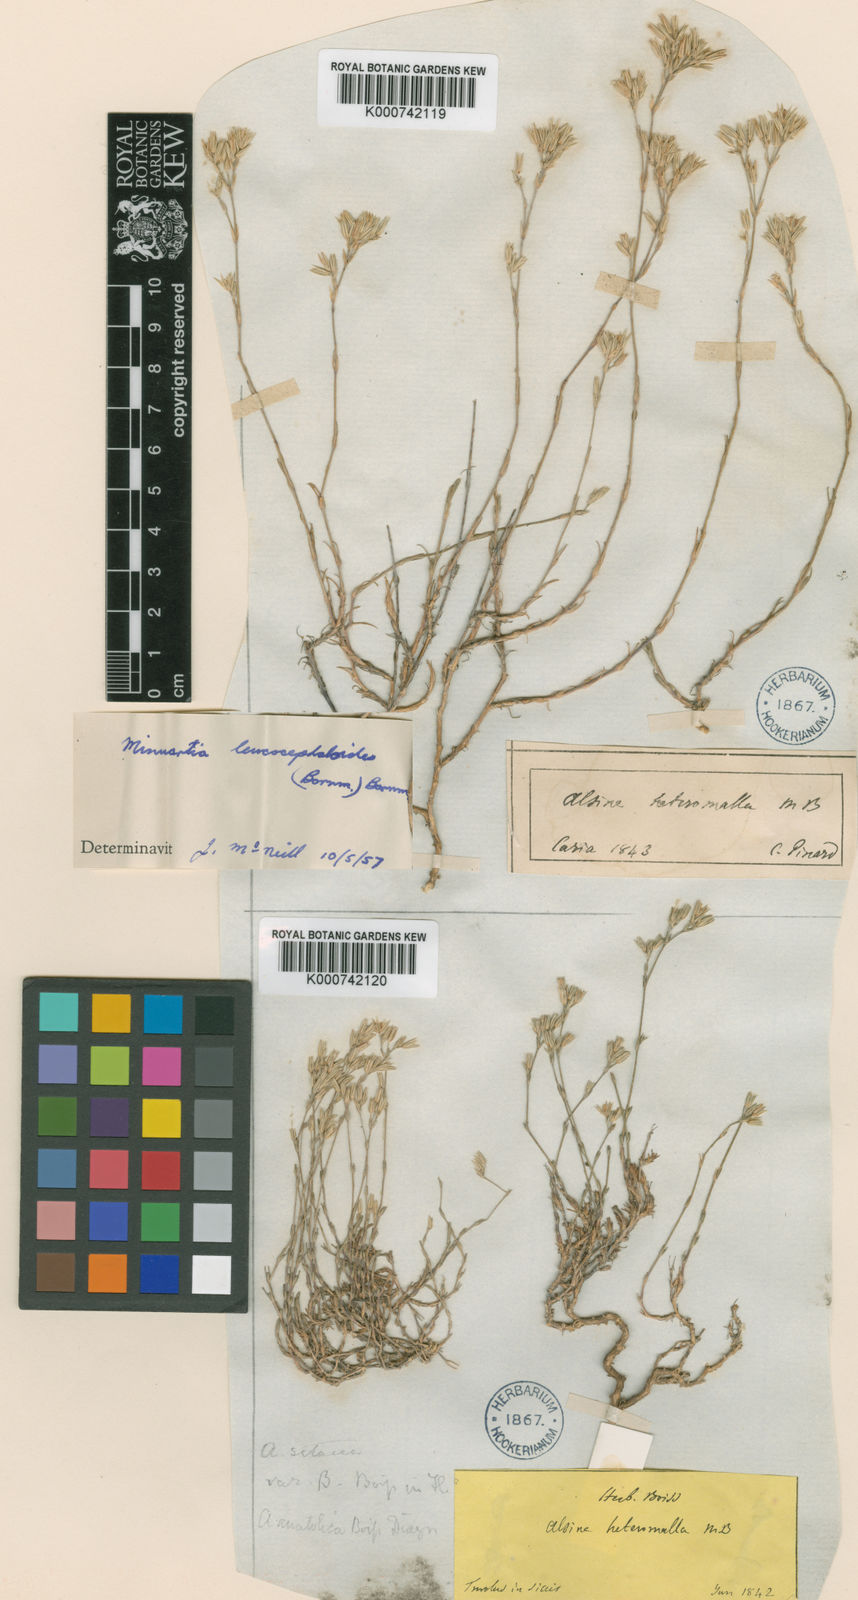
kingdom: Plantae
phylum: Tracheophyta
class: Magnoliopsida
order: Caryophyllales
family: Caryophyllaceae
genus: Minuartia
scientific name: Minuartia anatolica
